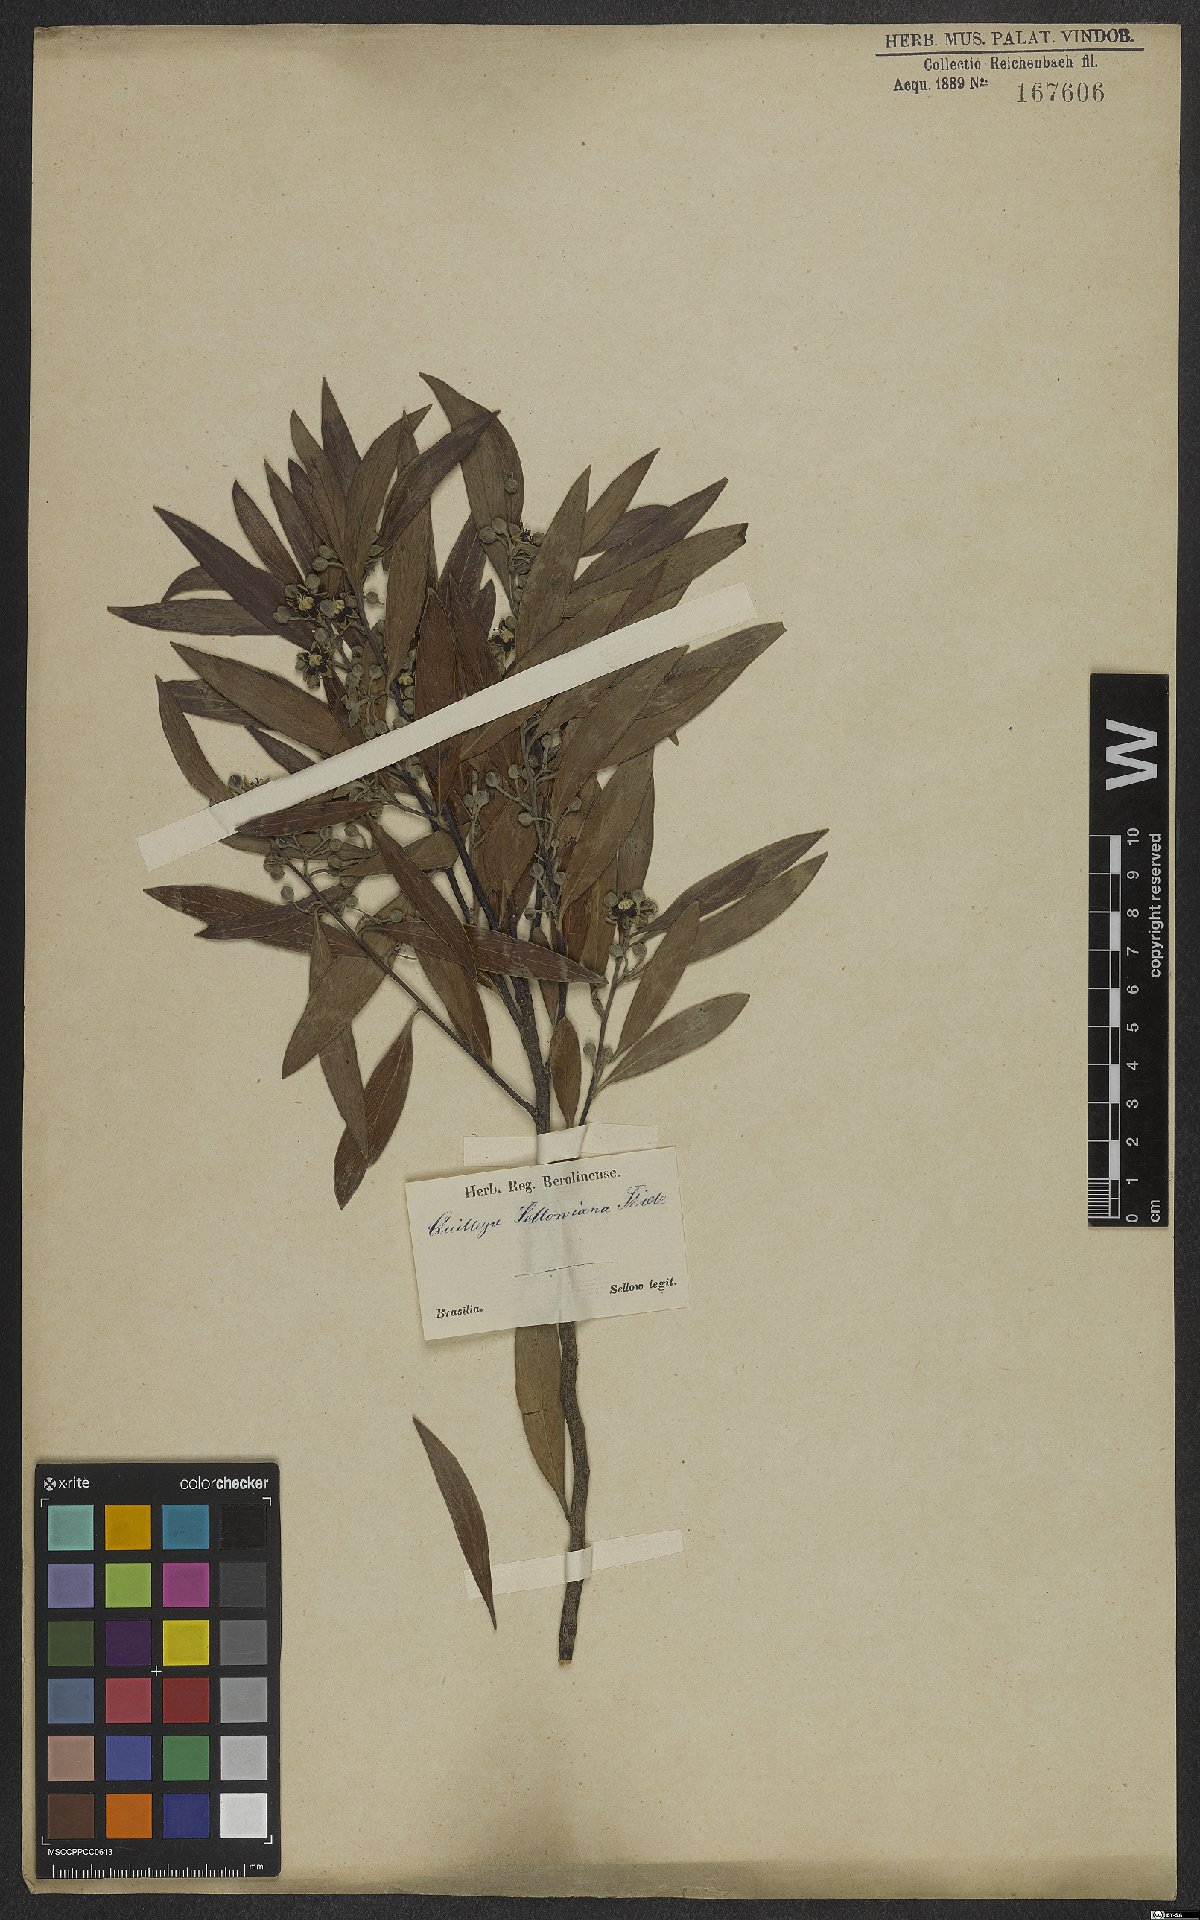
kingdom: Plantae
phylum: Tracheophyta
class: Magnoliopsida
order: Fabales
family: Quillajaceae
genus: Quillaja
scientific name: Quillaja brasiliensis
